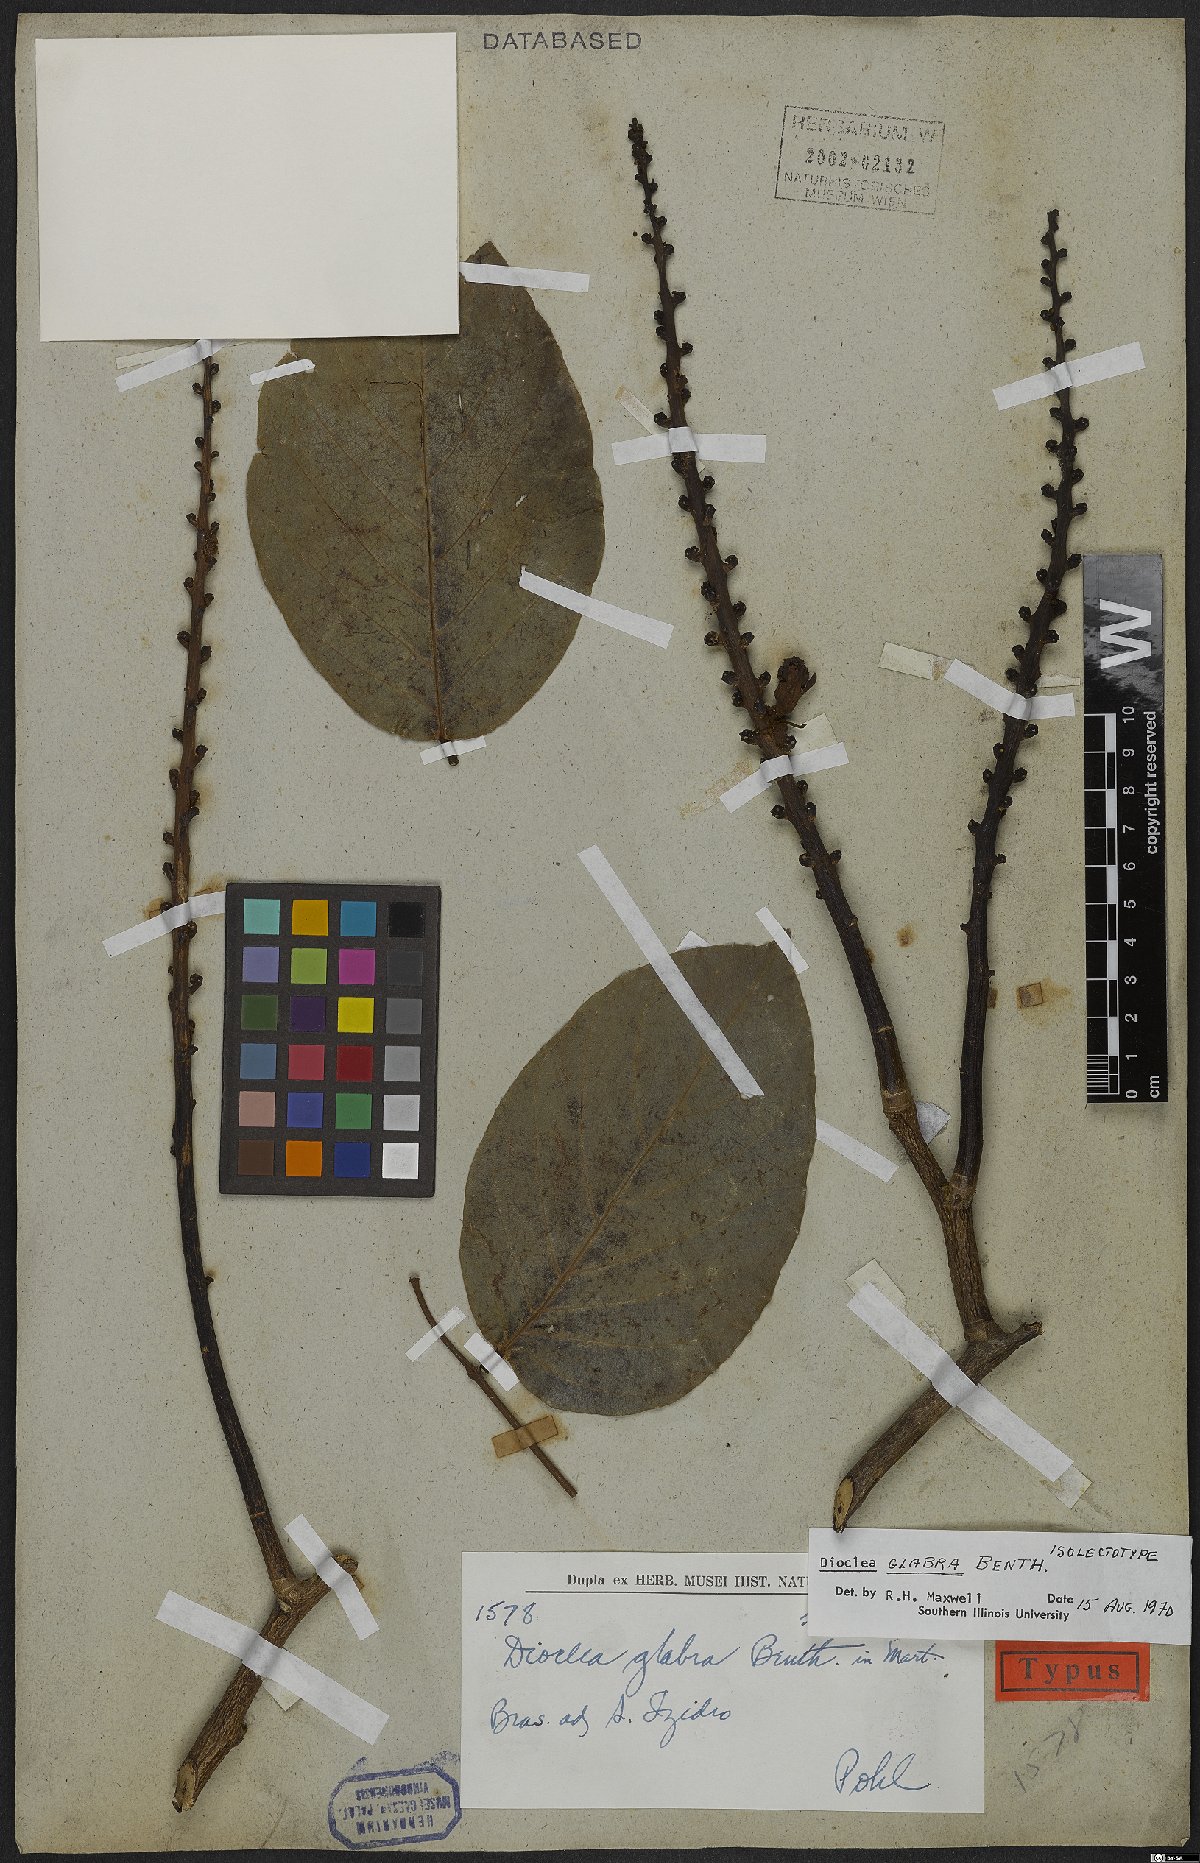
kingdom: Plantae
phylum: Tracheophyta
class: Magnoliopsida
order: Fabales
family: Fabaceae
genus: Macropsychanthus
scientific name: Macropsychanthus glaber
